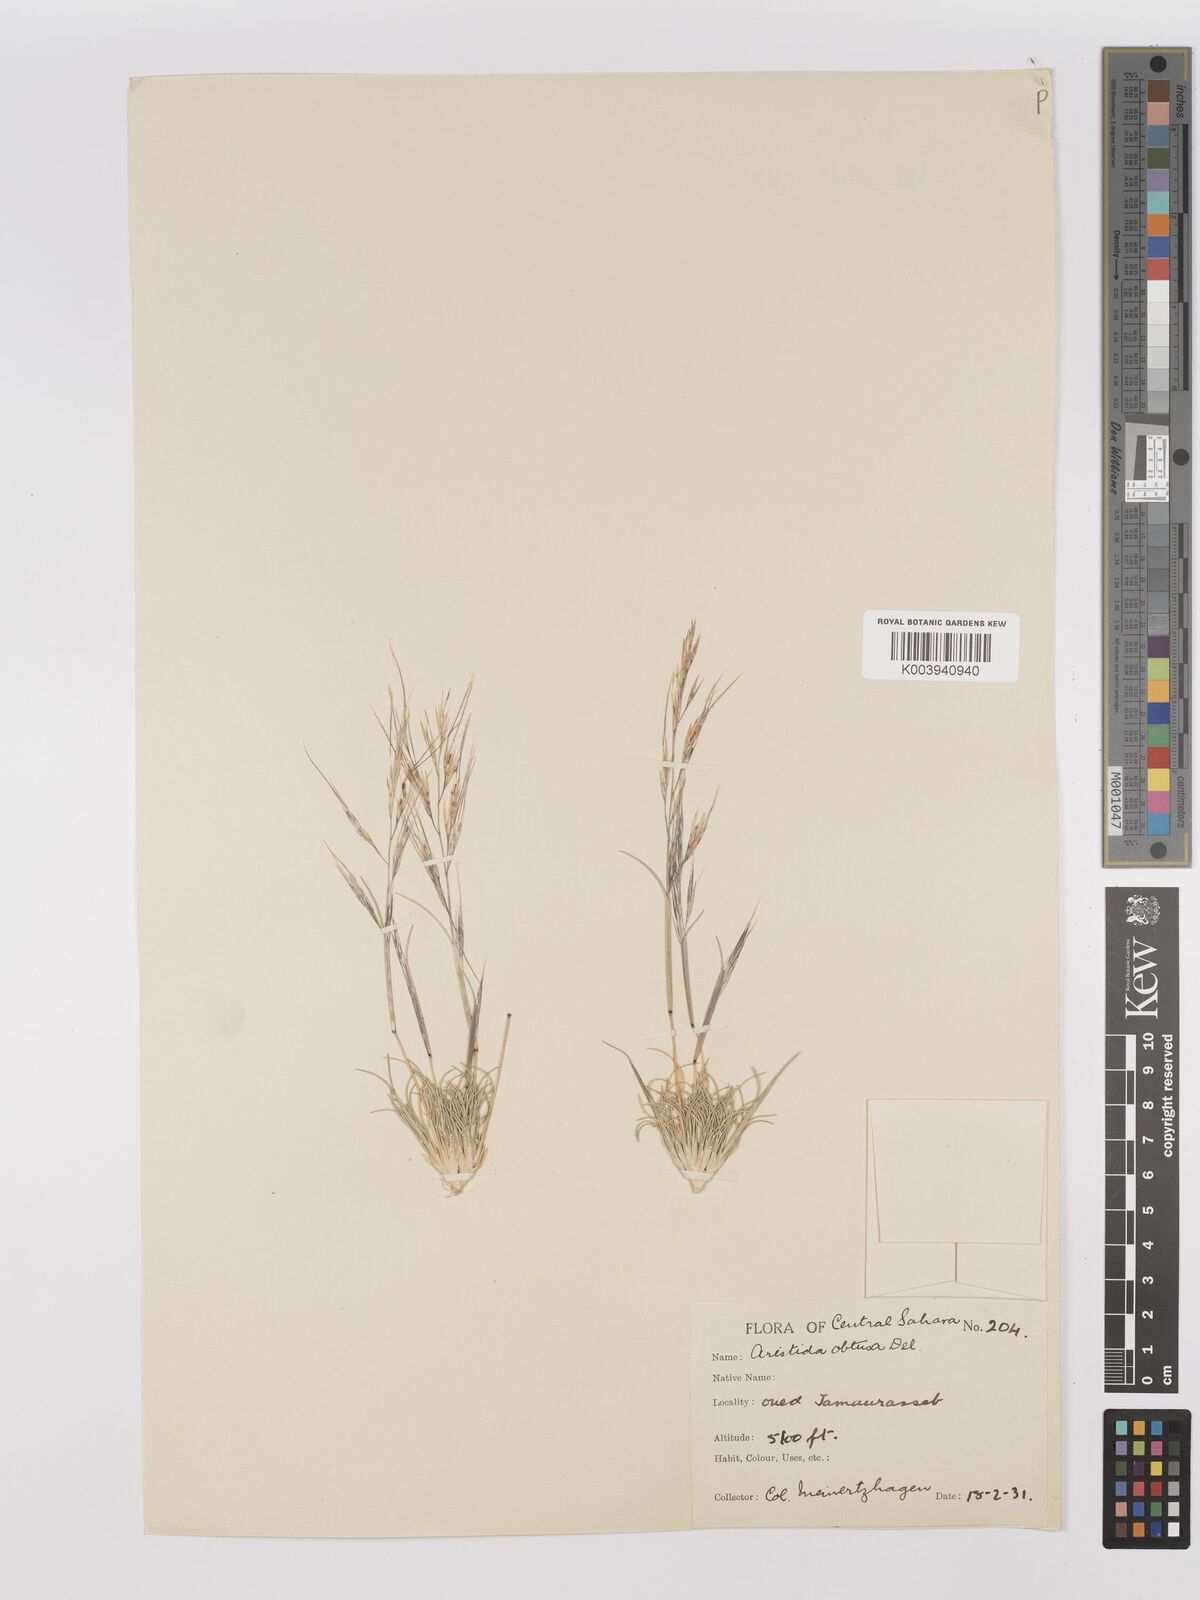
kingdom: Plantae
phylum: Tracheophyta
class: Liliopsida
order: Poales
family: Poaceae
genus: Stipagrostis
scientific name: Stipagrostis obtusa
